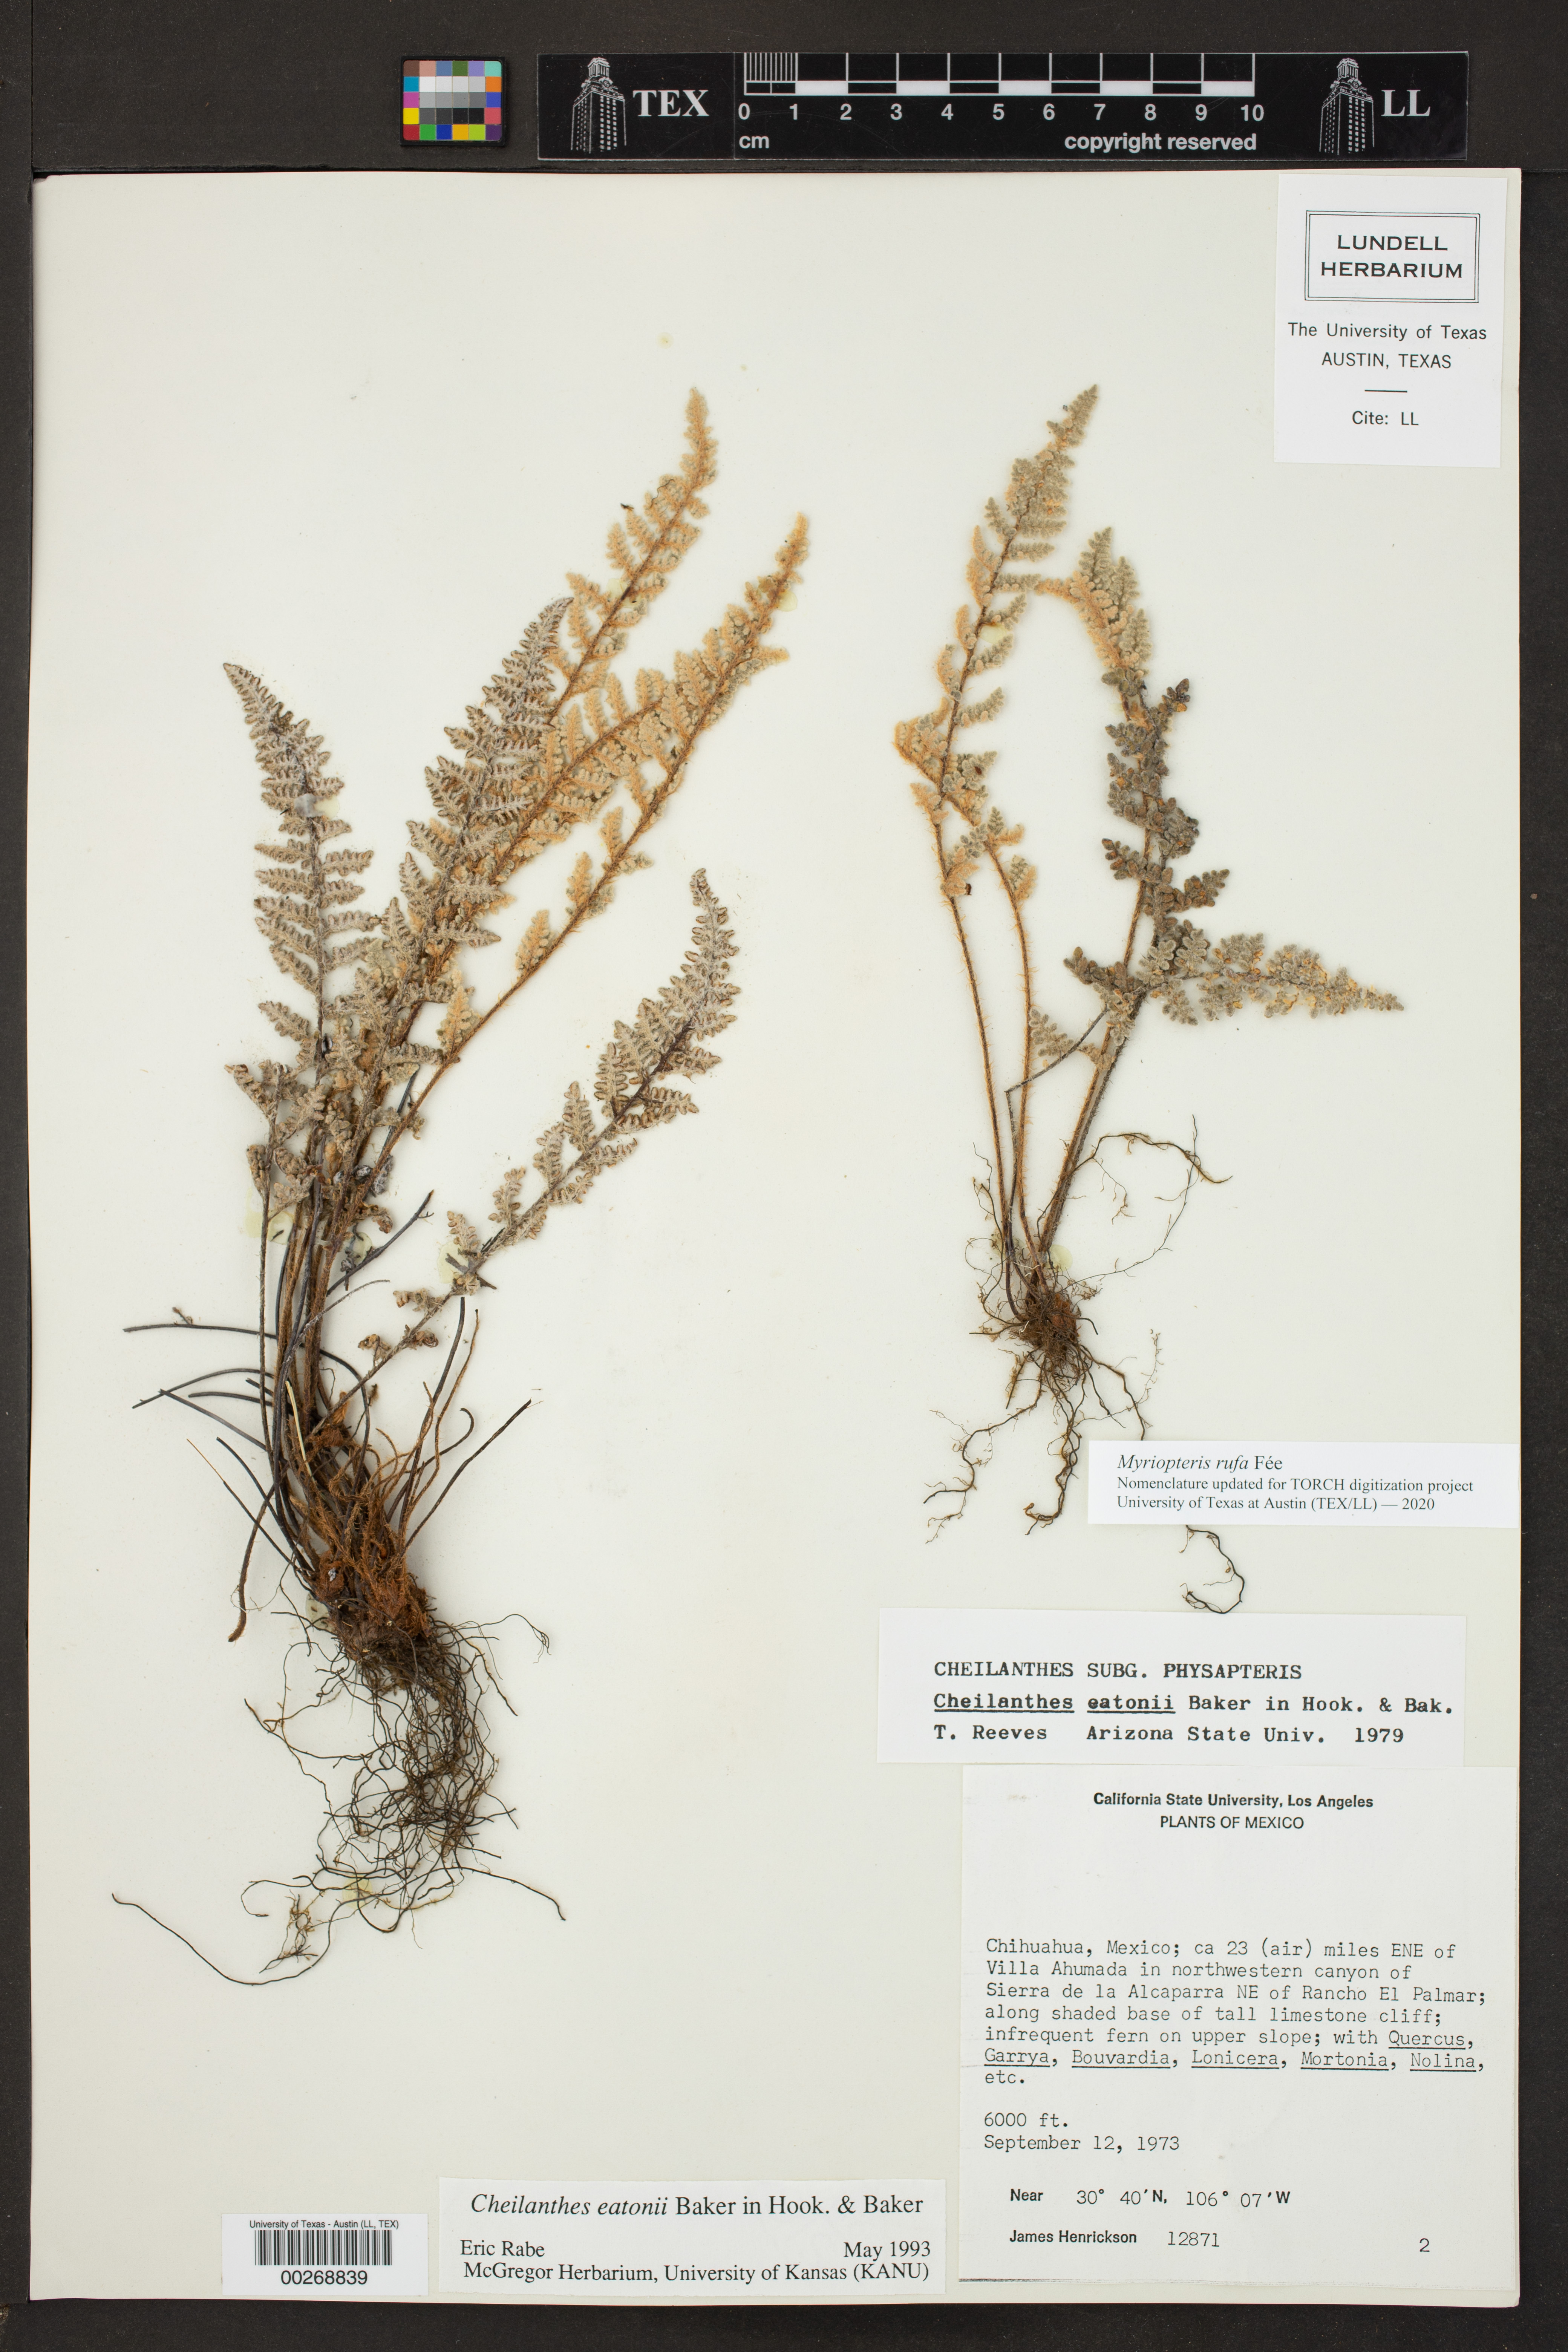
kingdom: Plantae
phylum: Tracheophyta
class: Polypodiopsida
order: Polypodiales
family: Pteridaceae
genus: Myriopteris
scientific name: Myriopteris rufa
